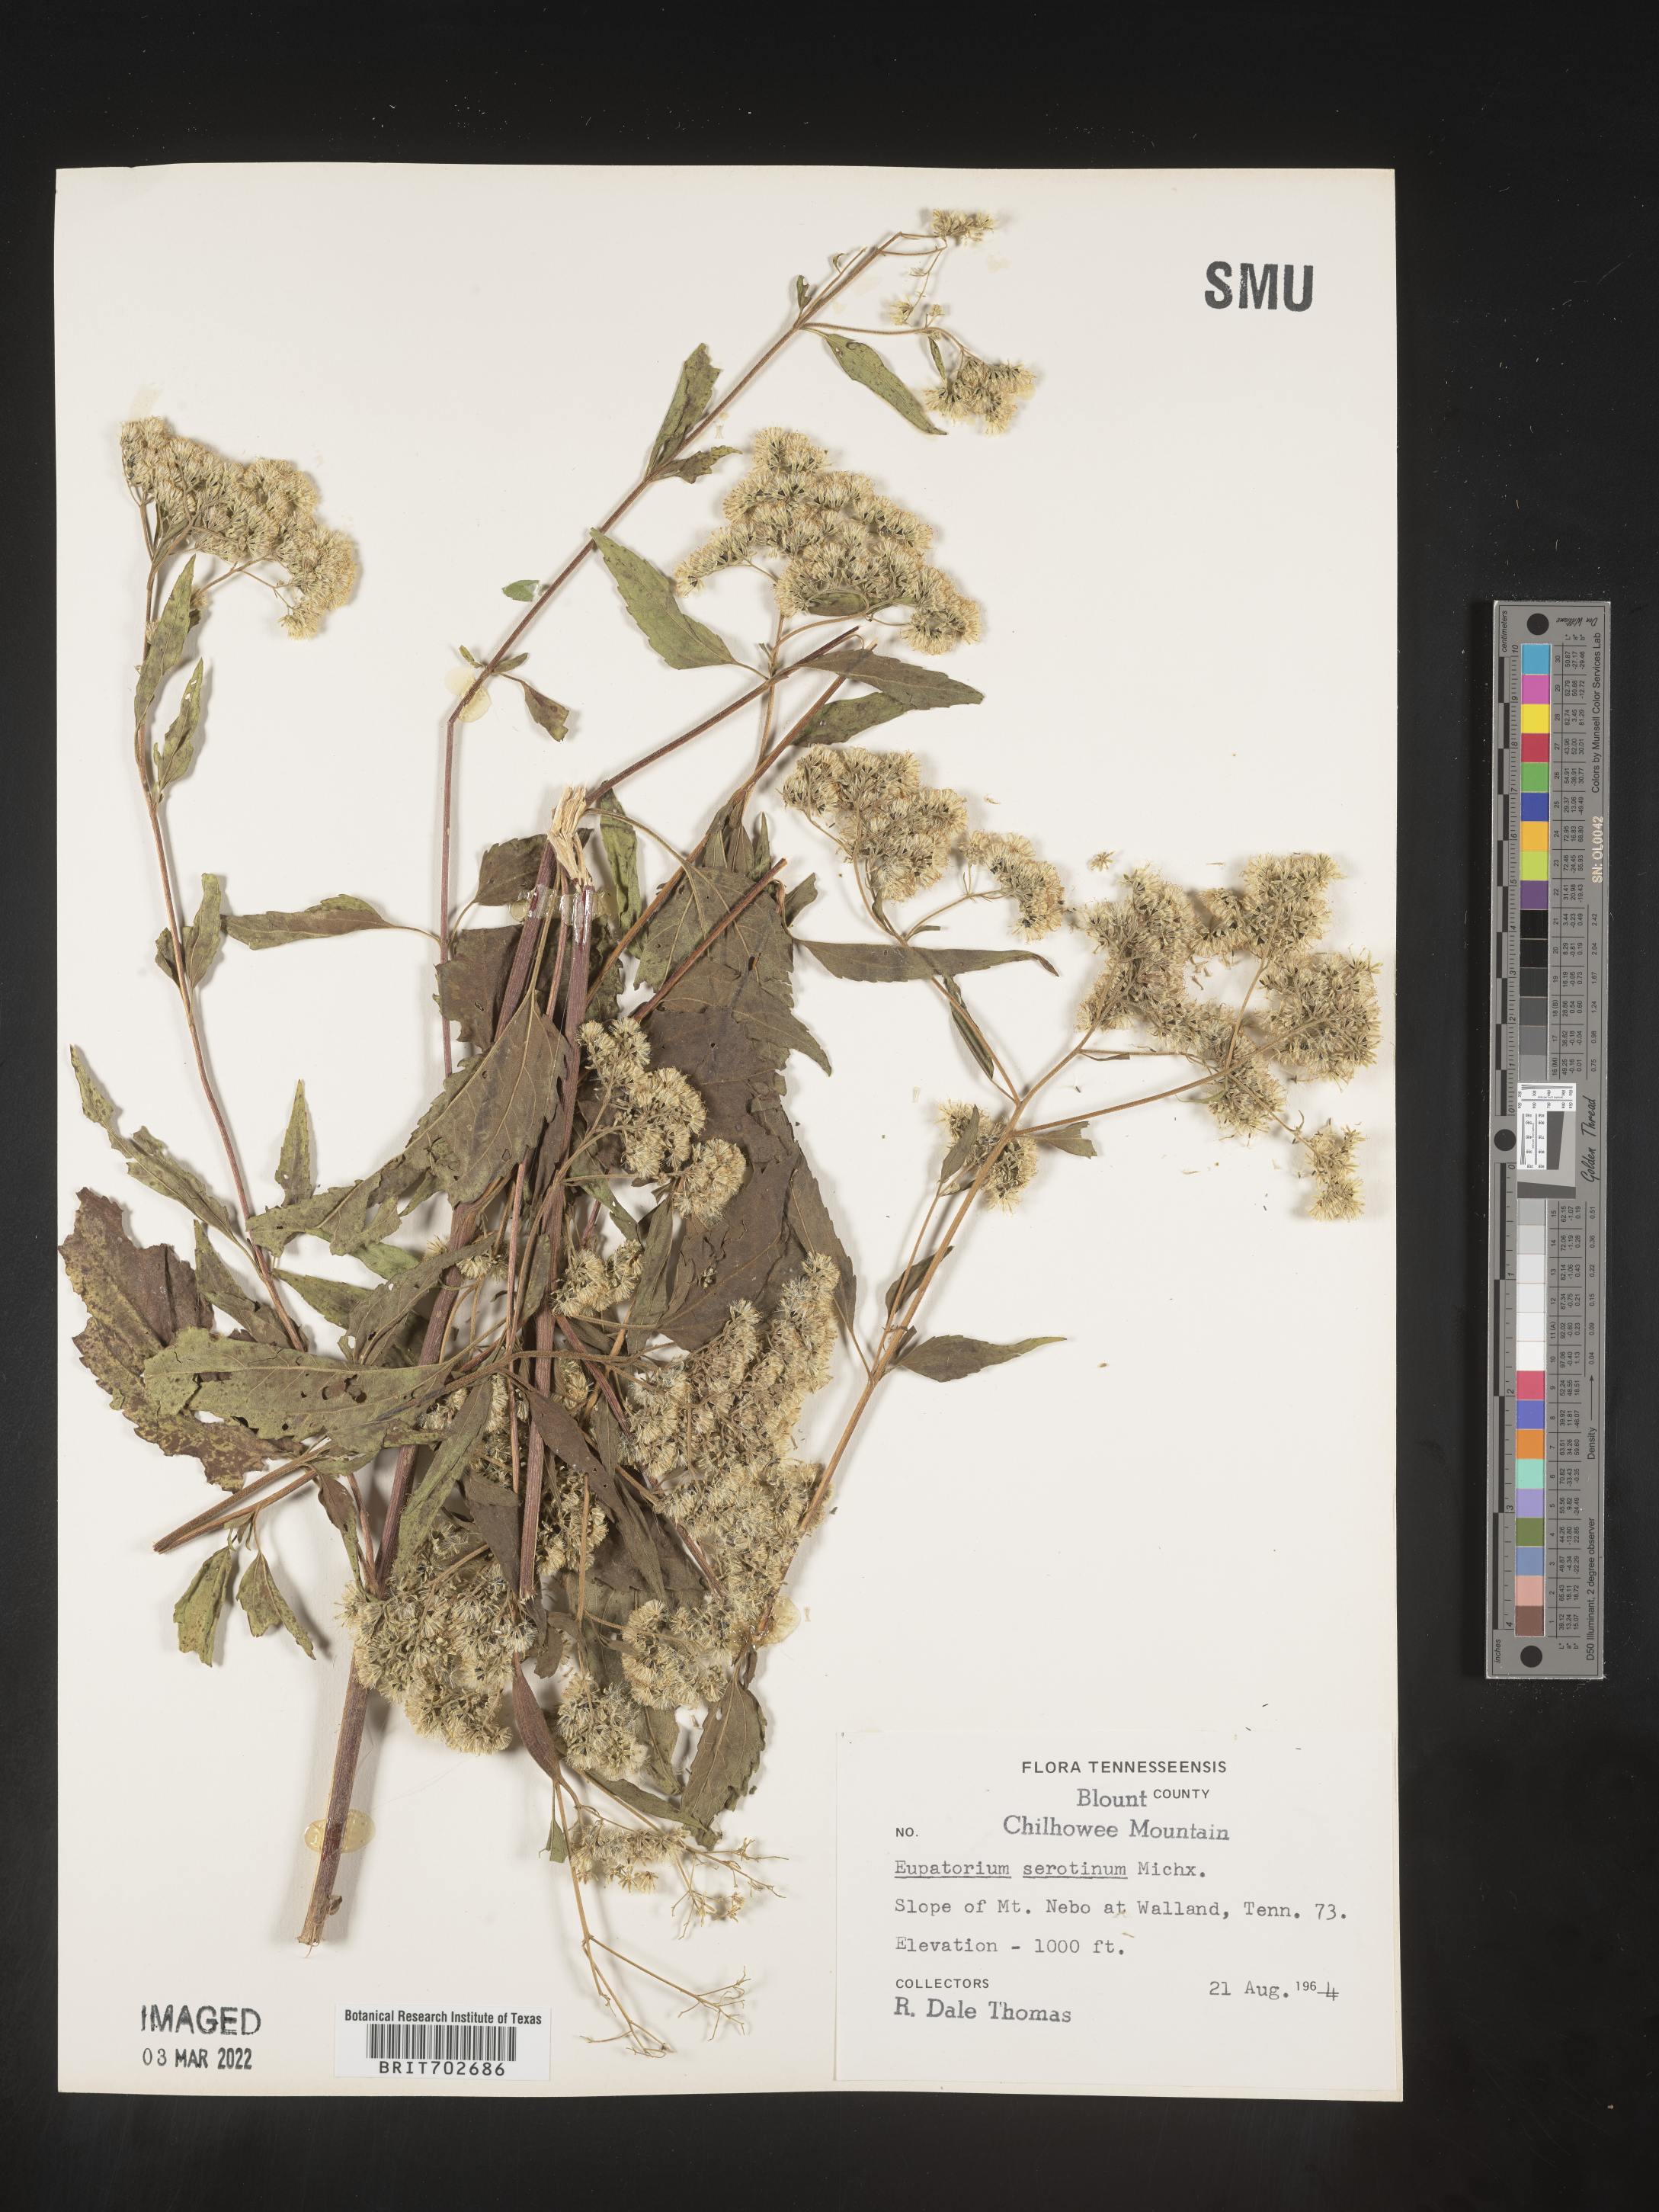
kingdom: Plantae
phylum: Tracheophyta
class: Magnoliopsida
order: Asterales
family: Asteraceae
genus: Eupatorium
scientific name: Eupatorium serotinum
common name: Late boneset
